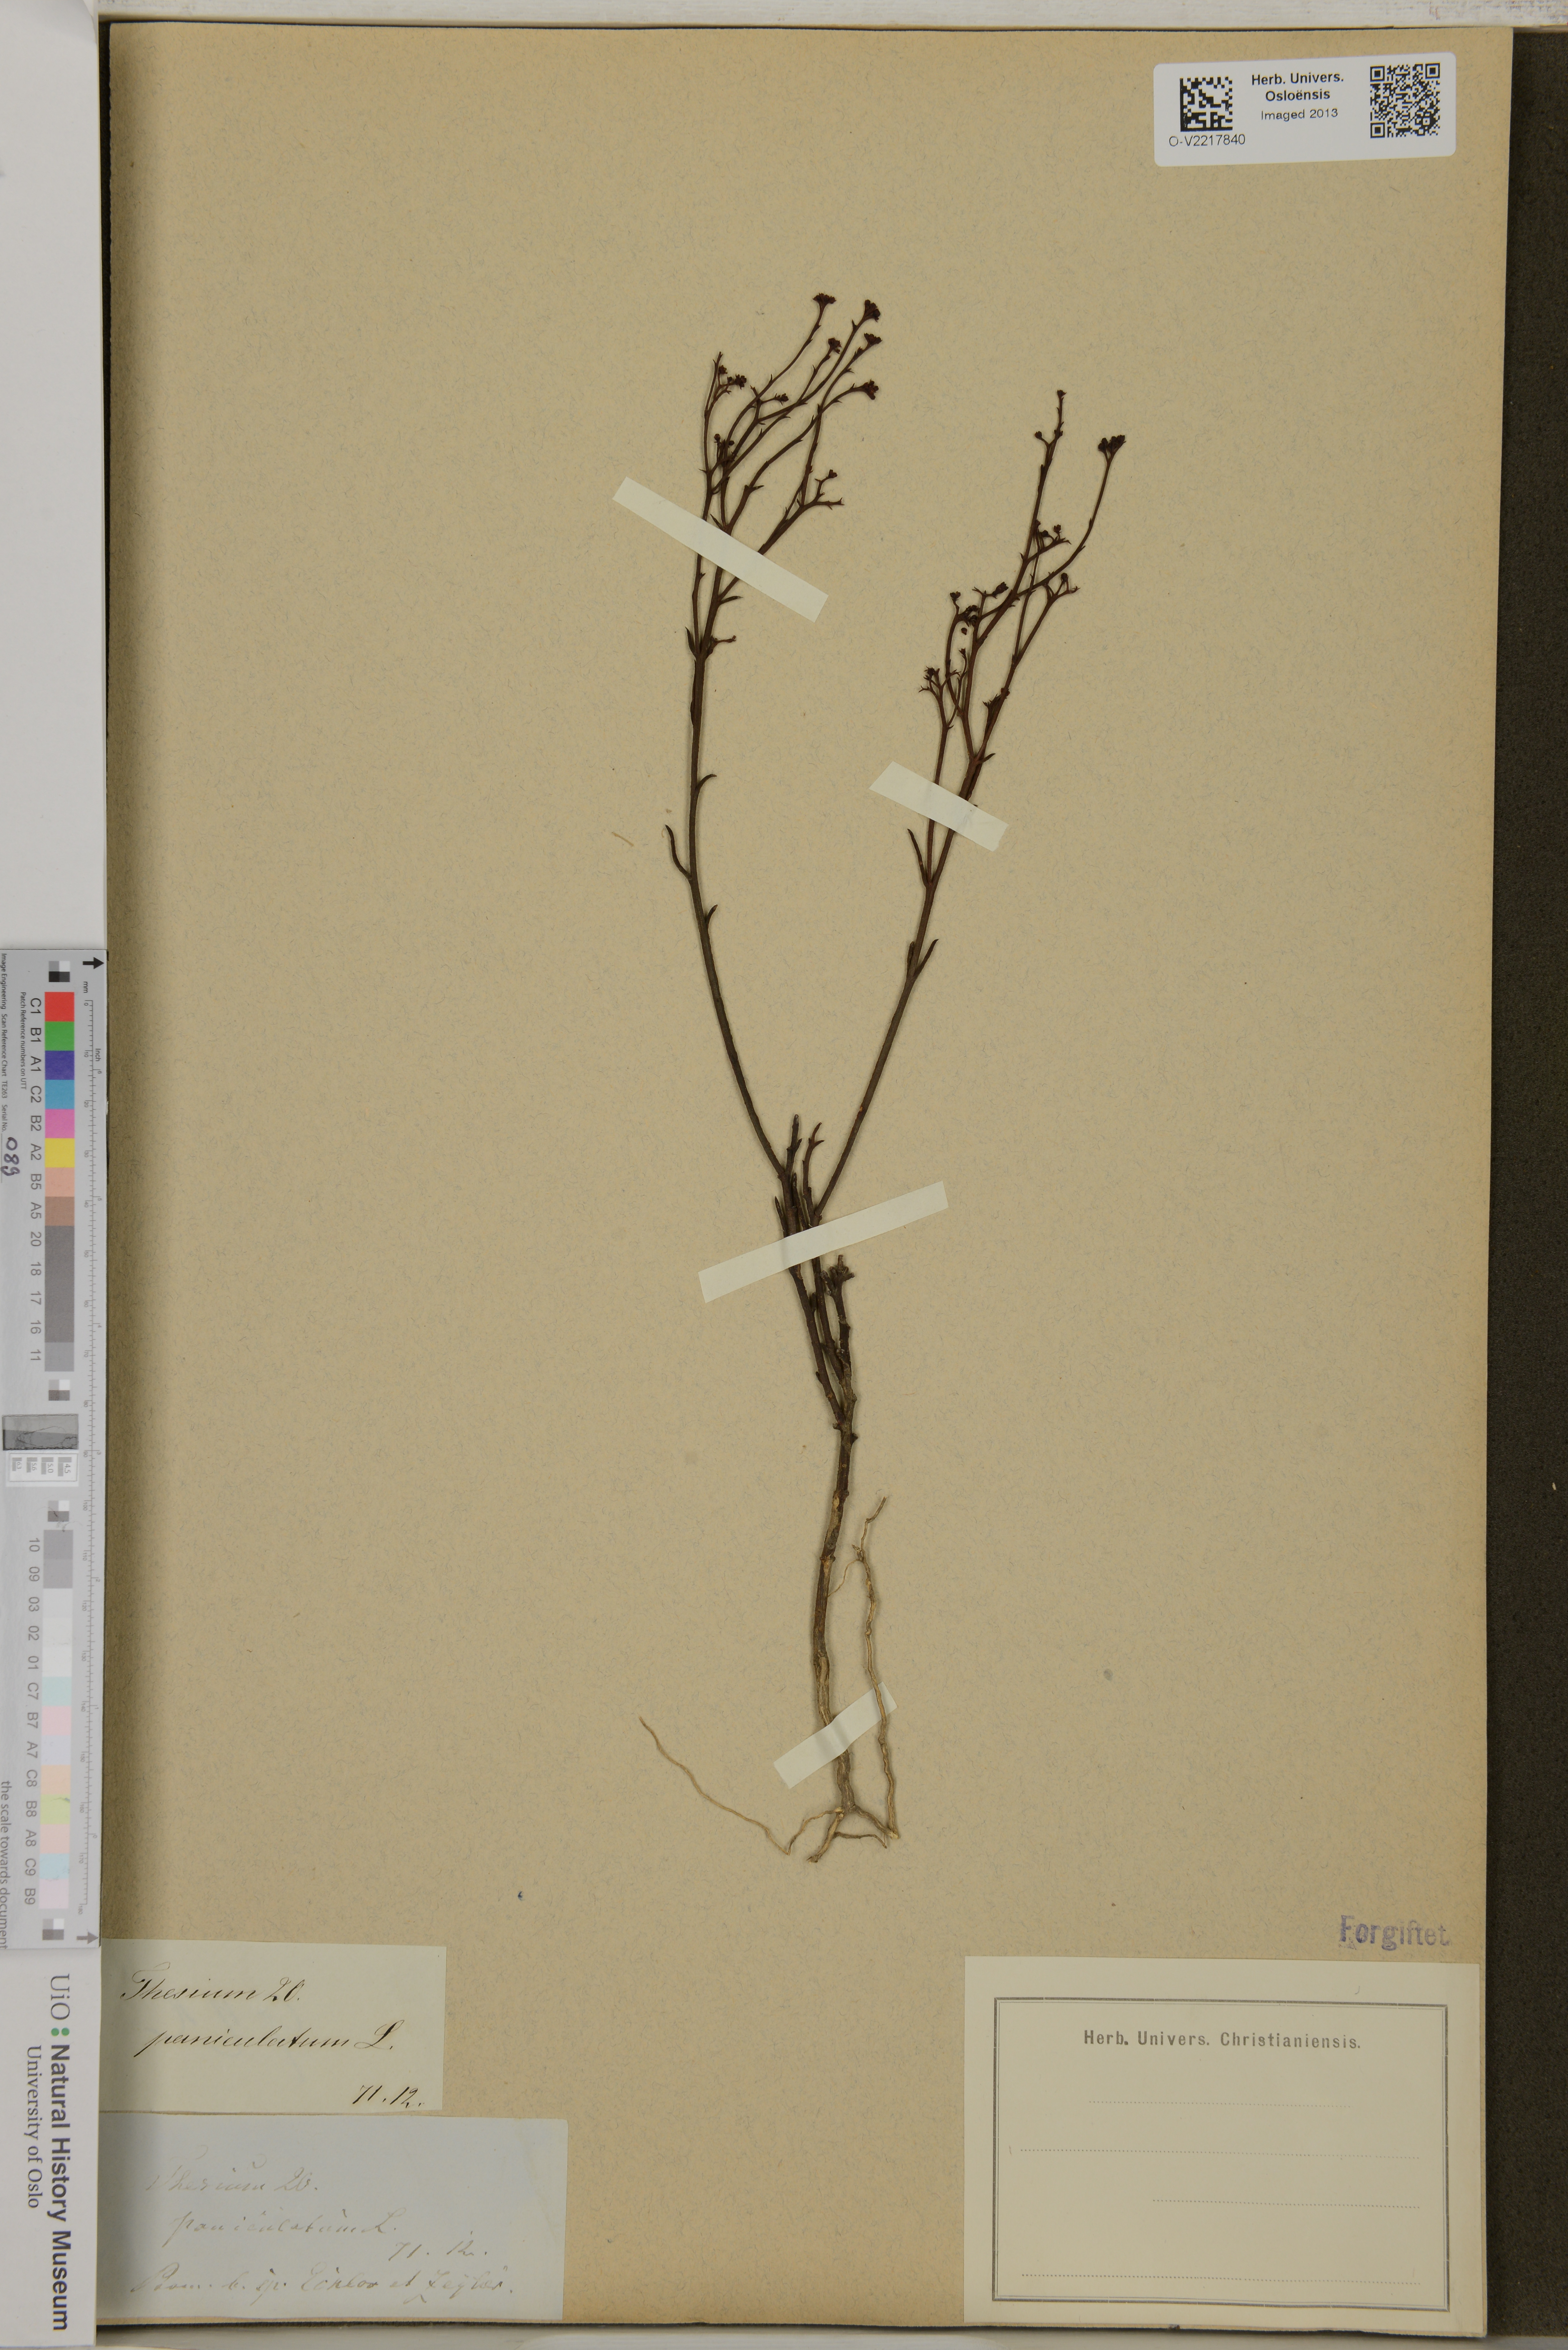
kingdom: Plantae
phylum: Tracheophyta
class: Magnoliopsida
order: Santalales
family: Thesiaceae
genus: Thesium
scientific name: Thesium penicillatum
